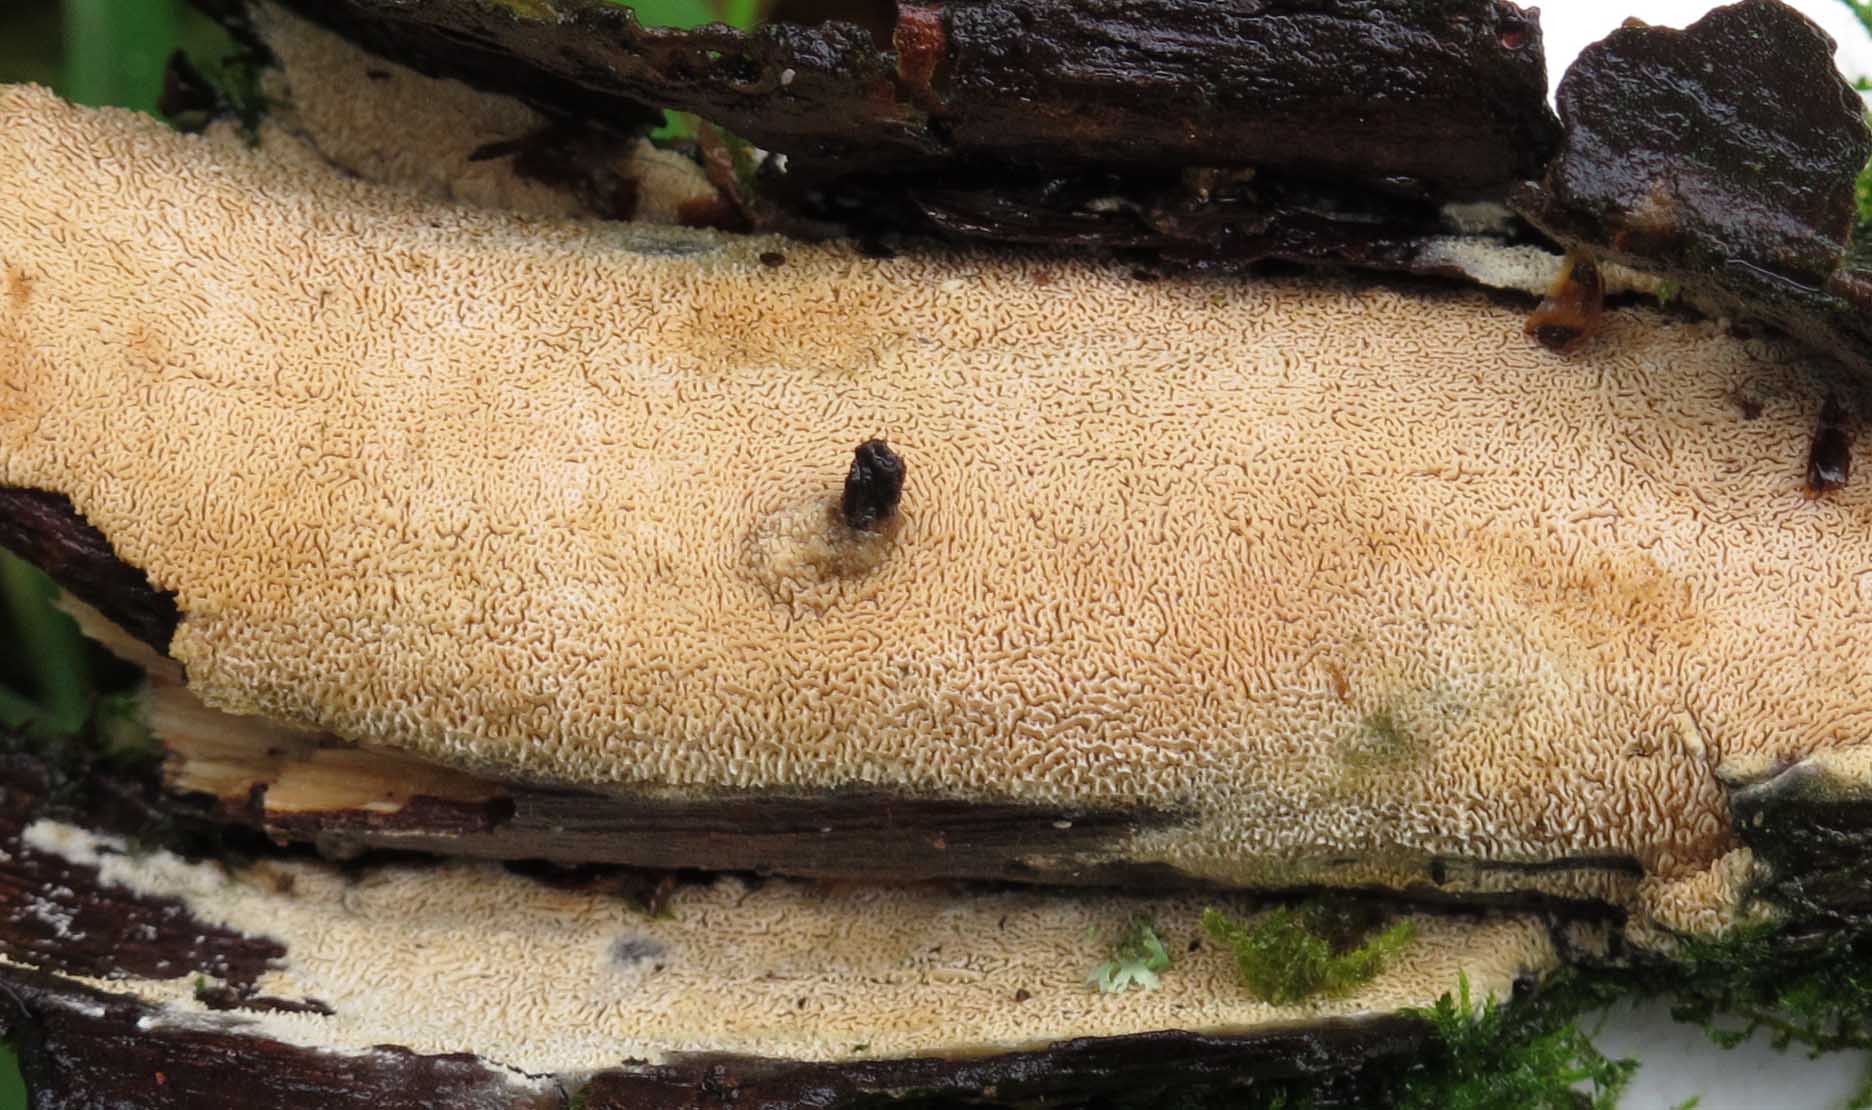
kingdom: Fungi
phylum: Basidiomycota
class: Agaricomycetes
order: Hymenochaetales
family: Schizoporaceae
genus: Xylodon
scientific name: Xylodon subtropicus
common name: labyrint-tandsvamp
